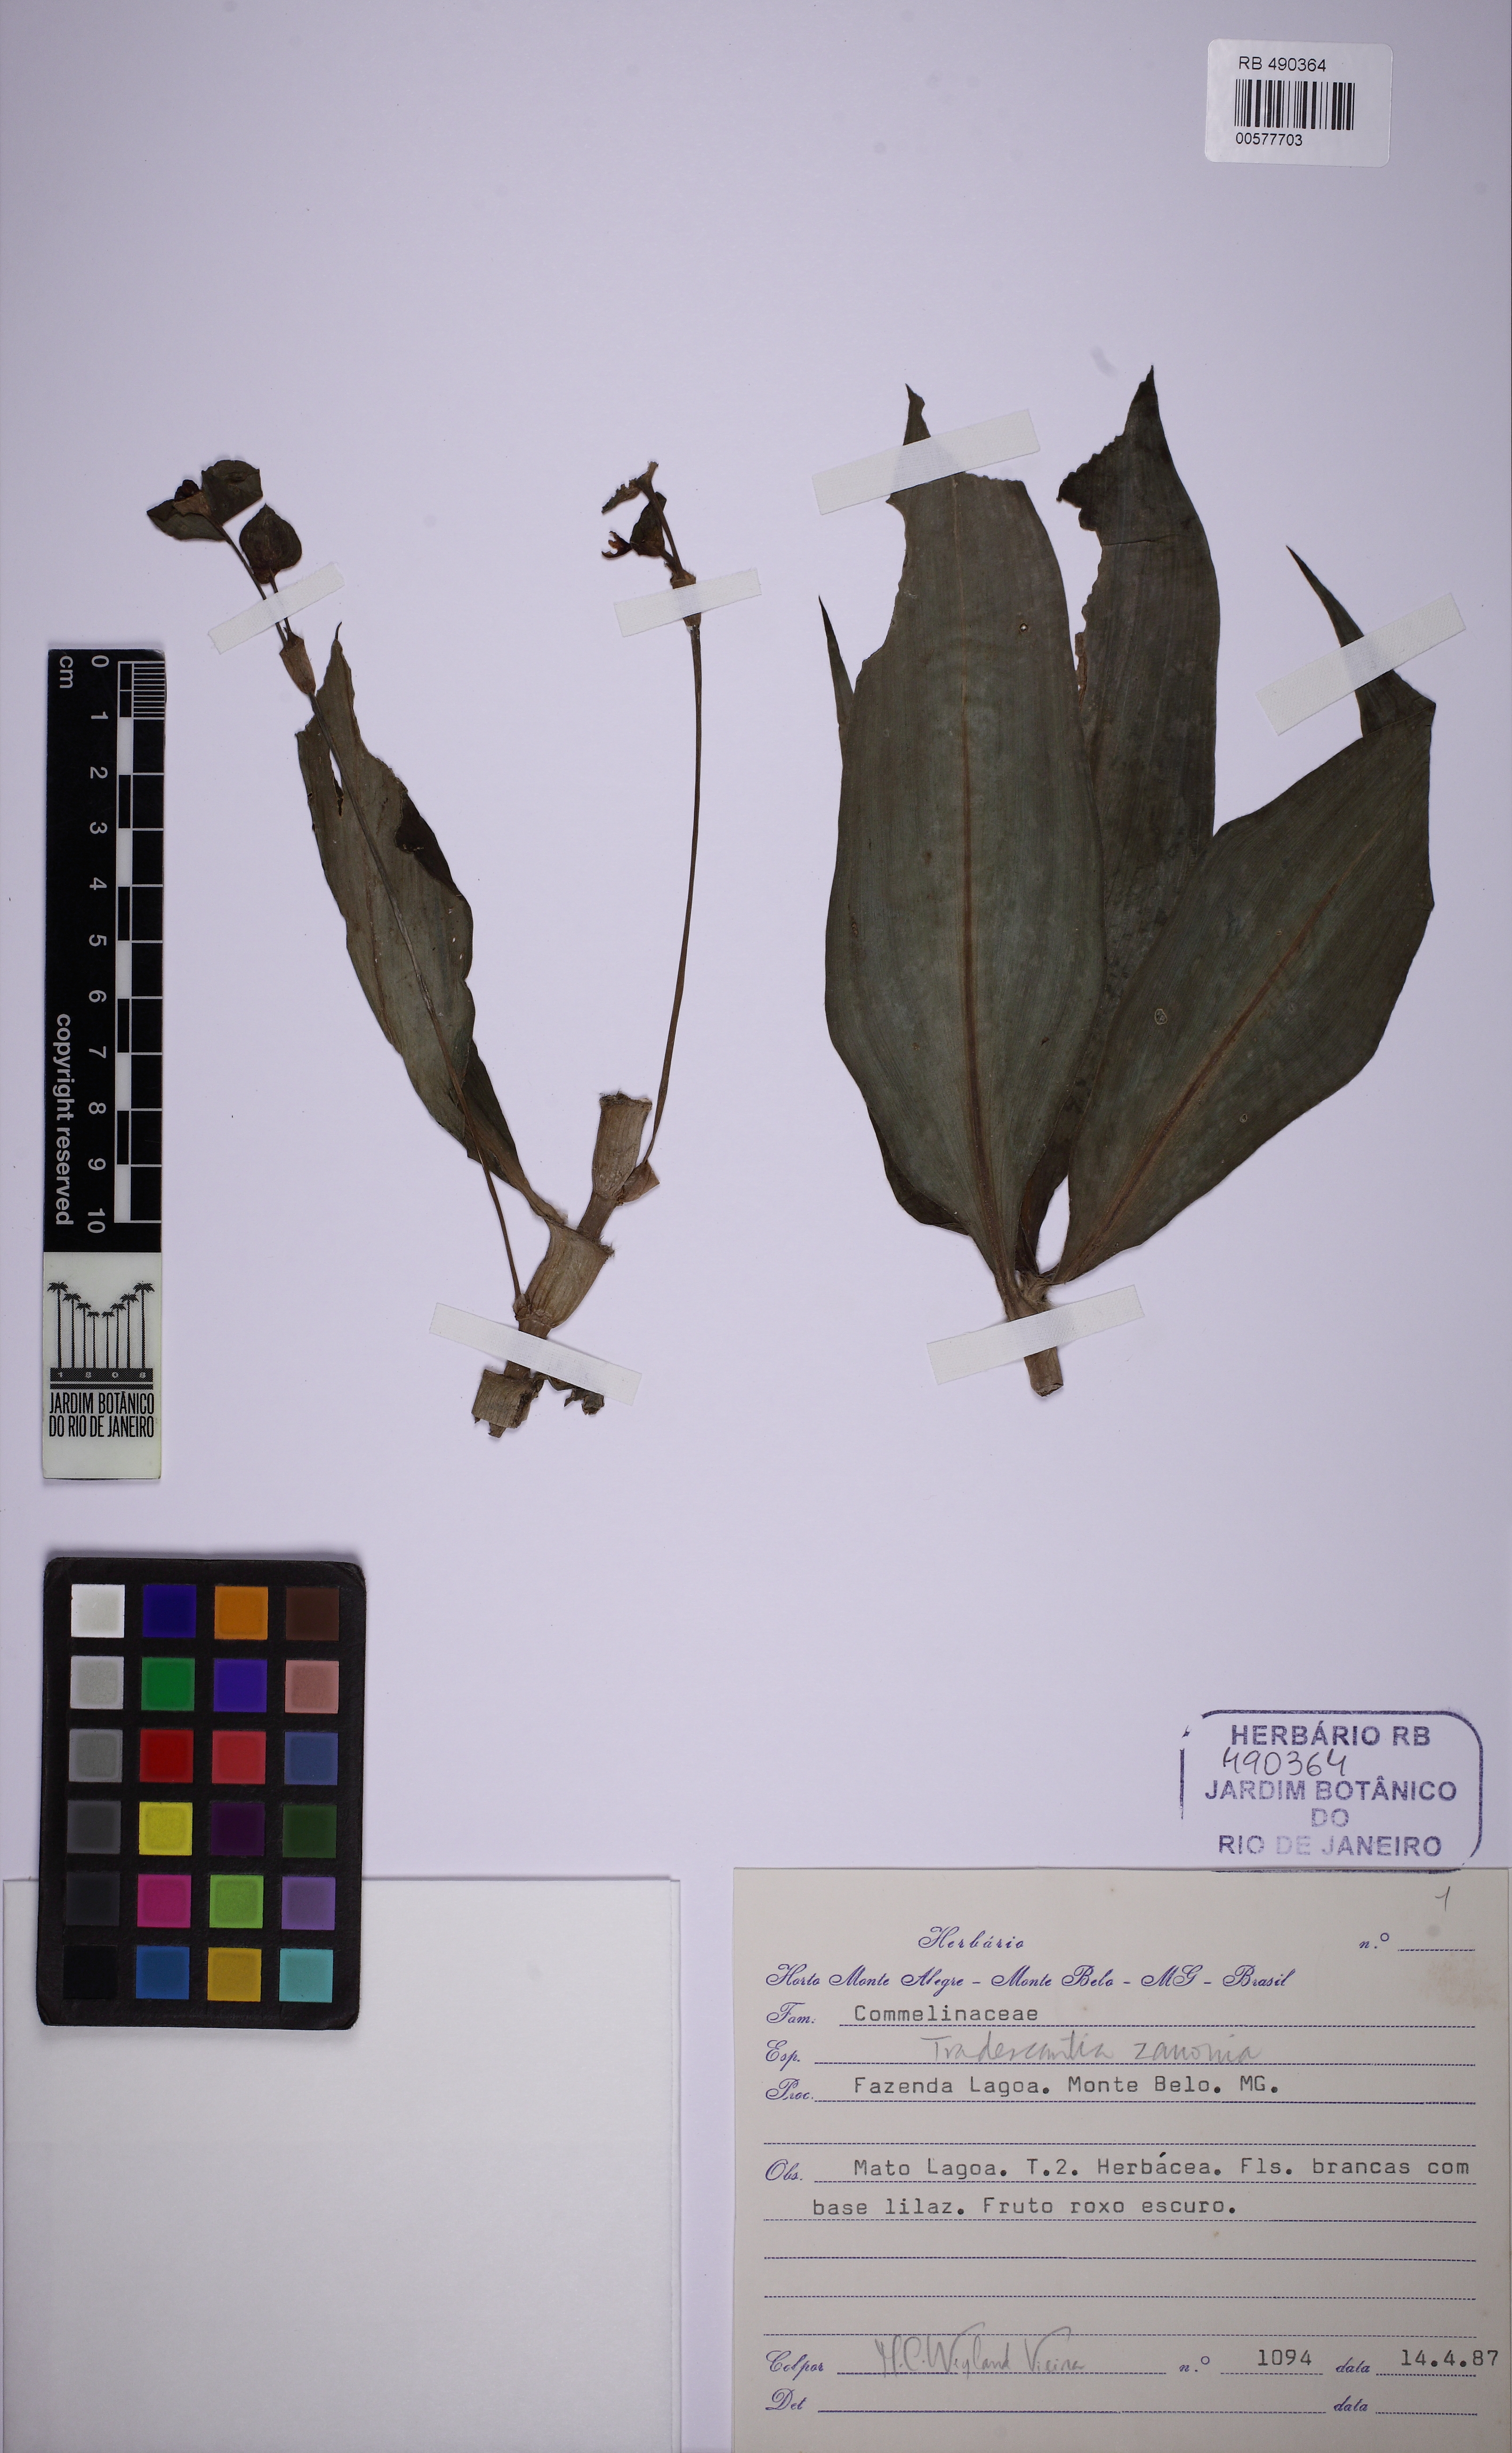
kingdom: Plantae
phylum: Tracheophyta
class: Liliopsida
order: Commelinales
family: Commelinaceae
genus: Tradescantia
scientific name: Tradescantia zanonia
